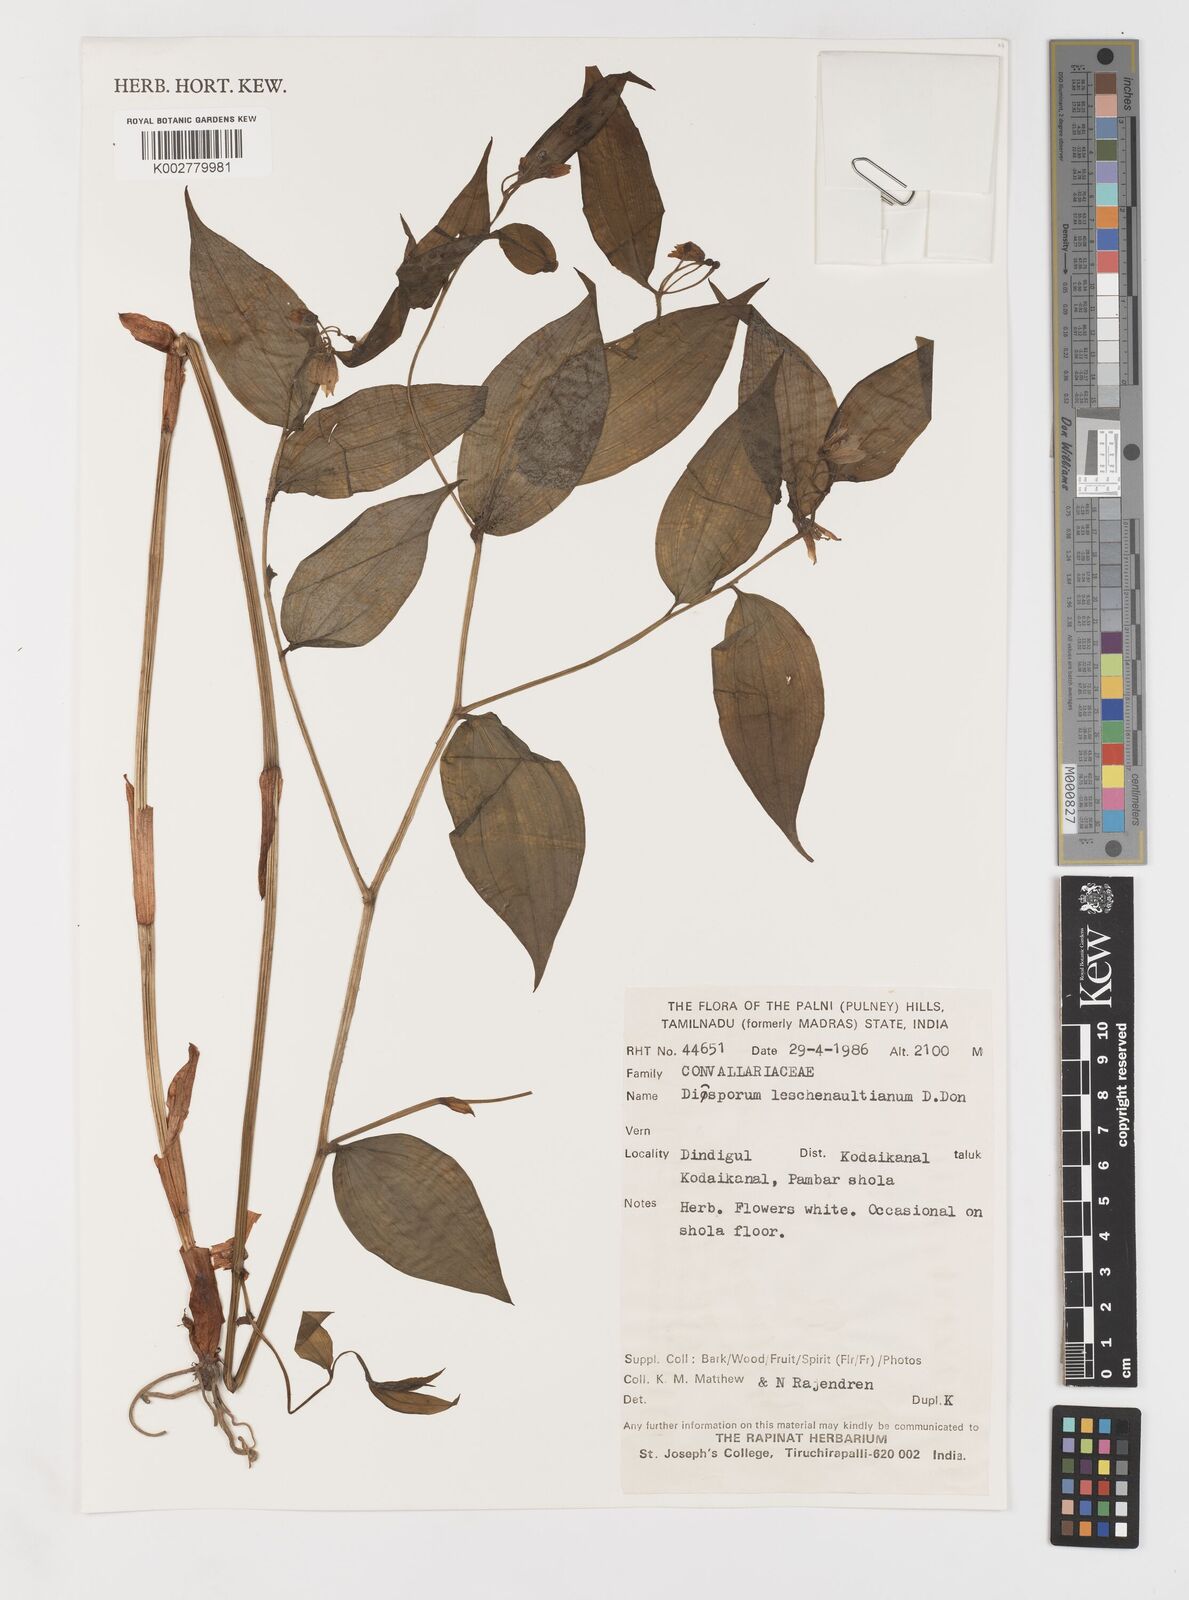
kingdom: Plantae
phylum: Tracheophyta
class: Liliopsida
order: Liliales
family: Colchicaceae
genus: Disporum
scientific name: Disporum cantoniense
